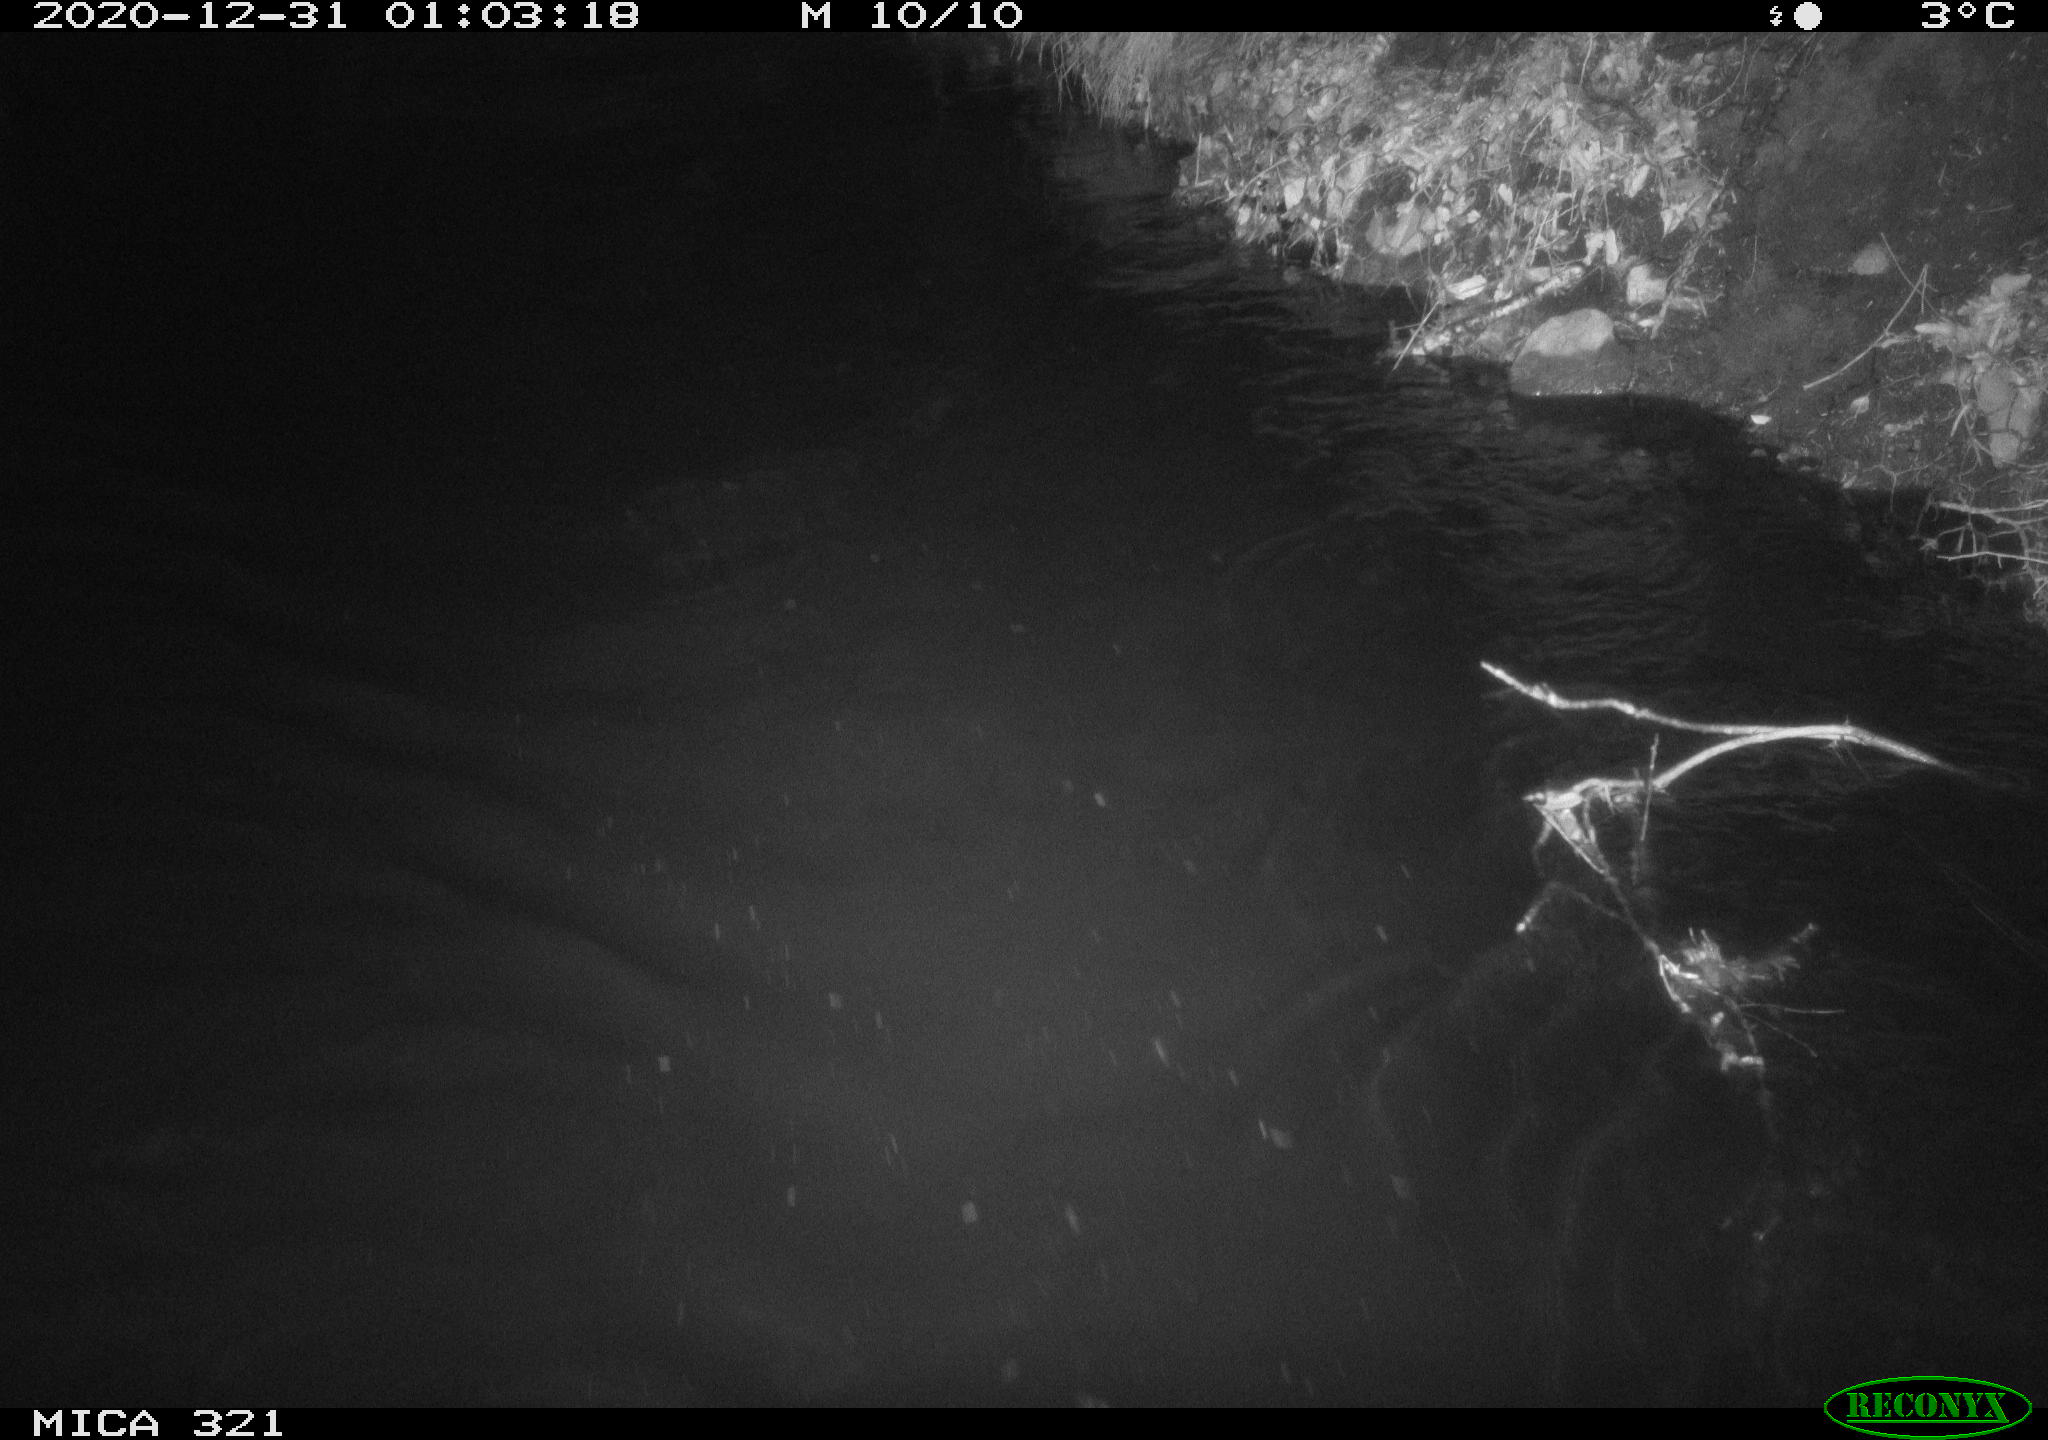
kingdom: Animalia
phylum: Chordata
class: Aves
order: Anseriformes
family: Anatidae
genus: Anas
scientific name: Anas platyrhynchos
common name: Mallard
